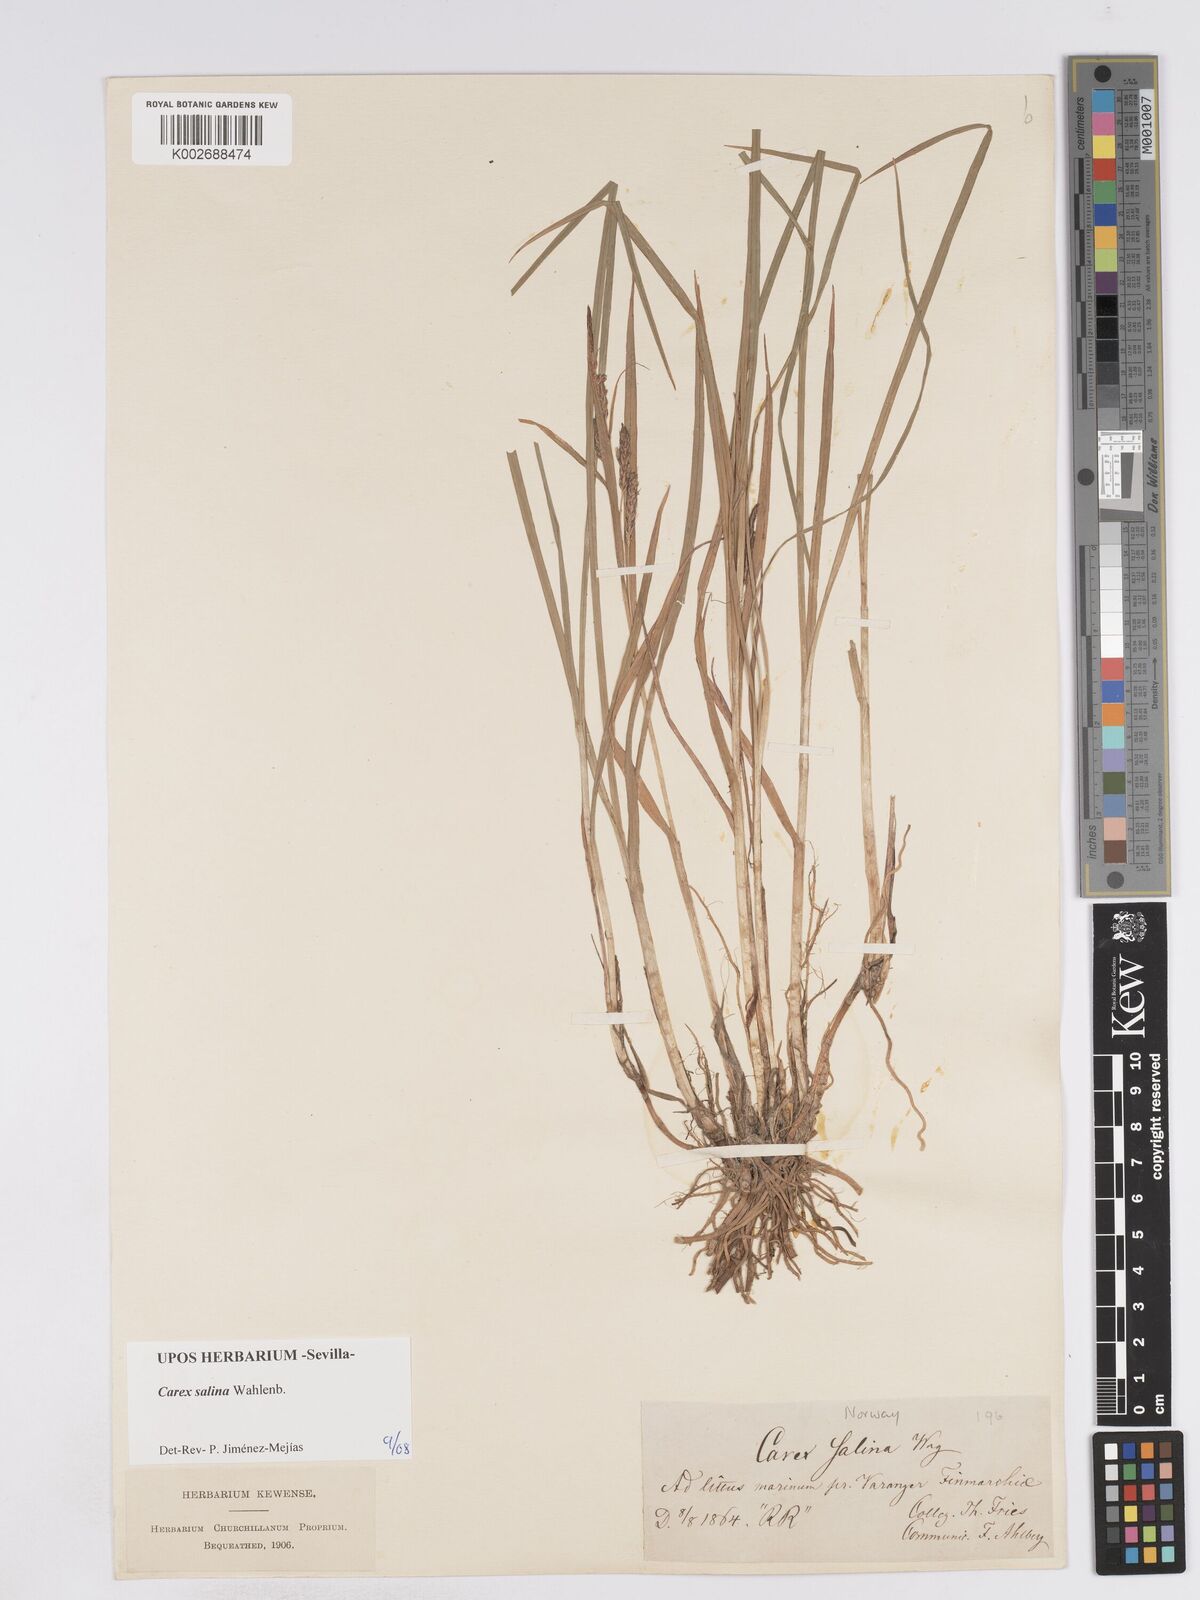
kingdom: Plantae
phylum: Tracheophyta
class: Liliopsida
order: Poales
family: Cyperaceae
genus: Carex
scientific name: Carex salina
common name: Saltmarsh sedge
